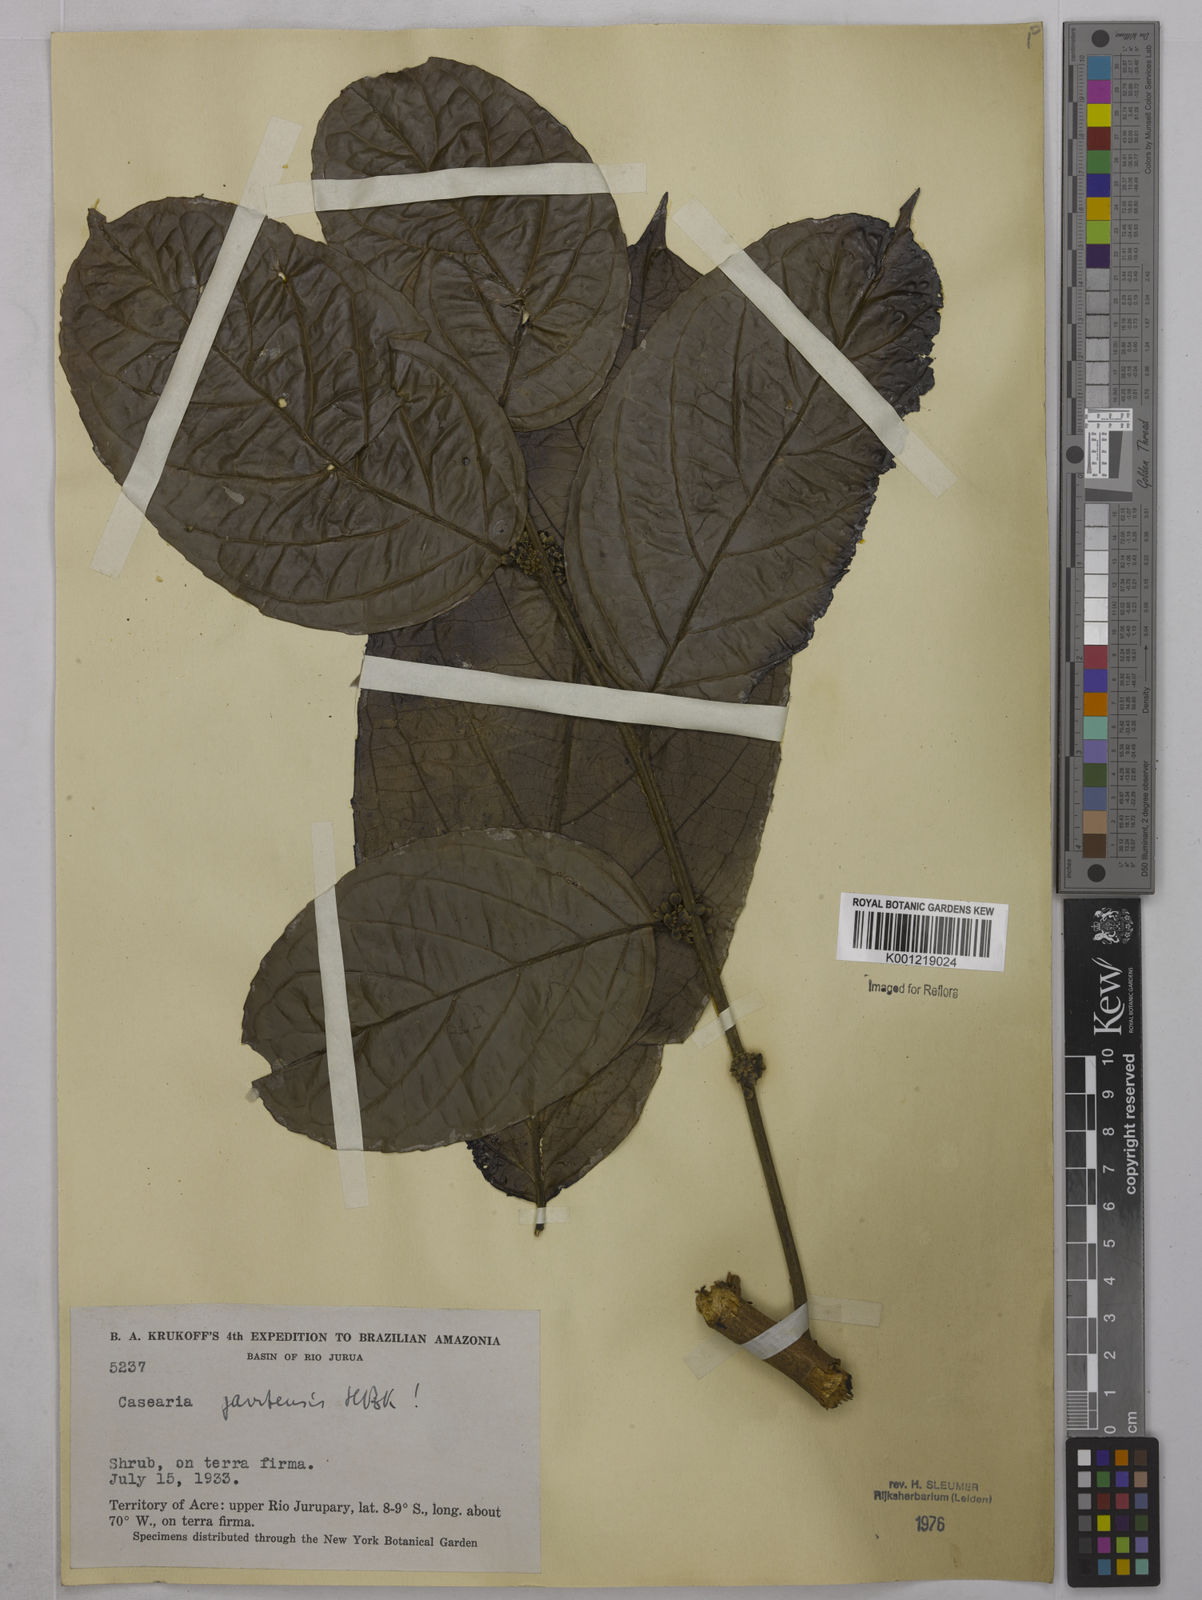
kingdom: Plantae
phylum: Tracheophyta
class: Magnoliopsida
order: Malpighiales
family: Salicaceae
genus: Piparea
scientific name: Piparea multiflora
